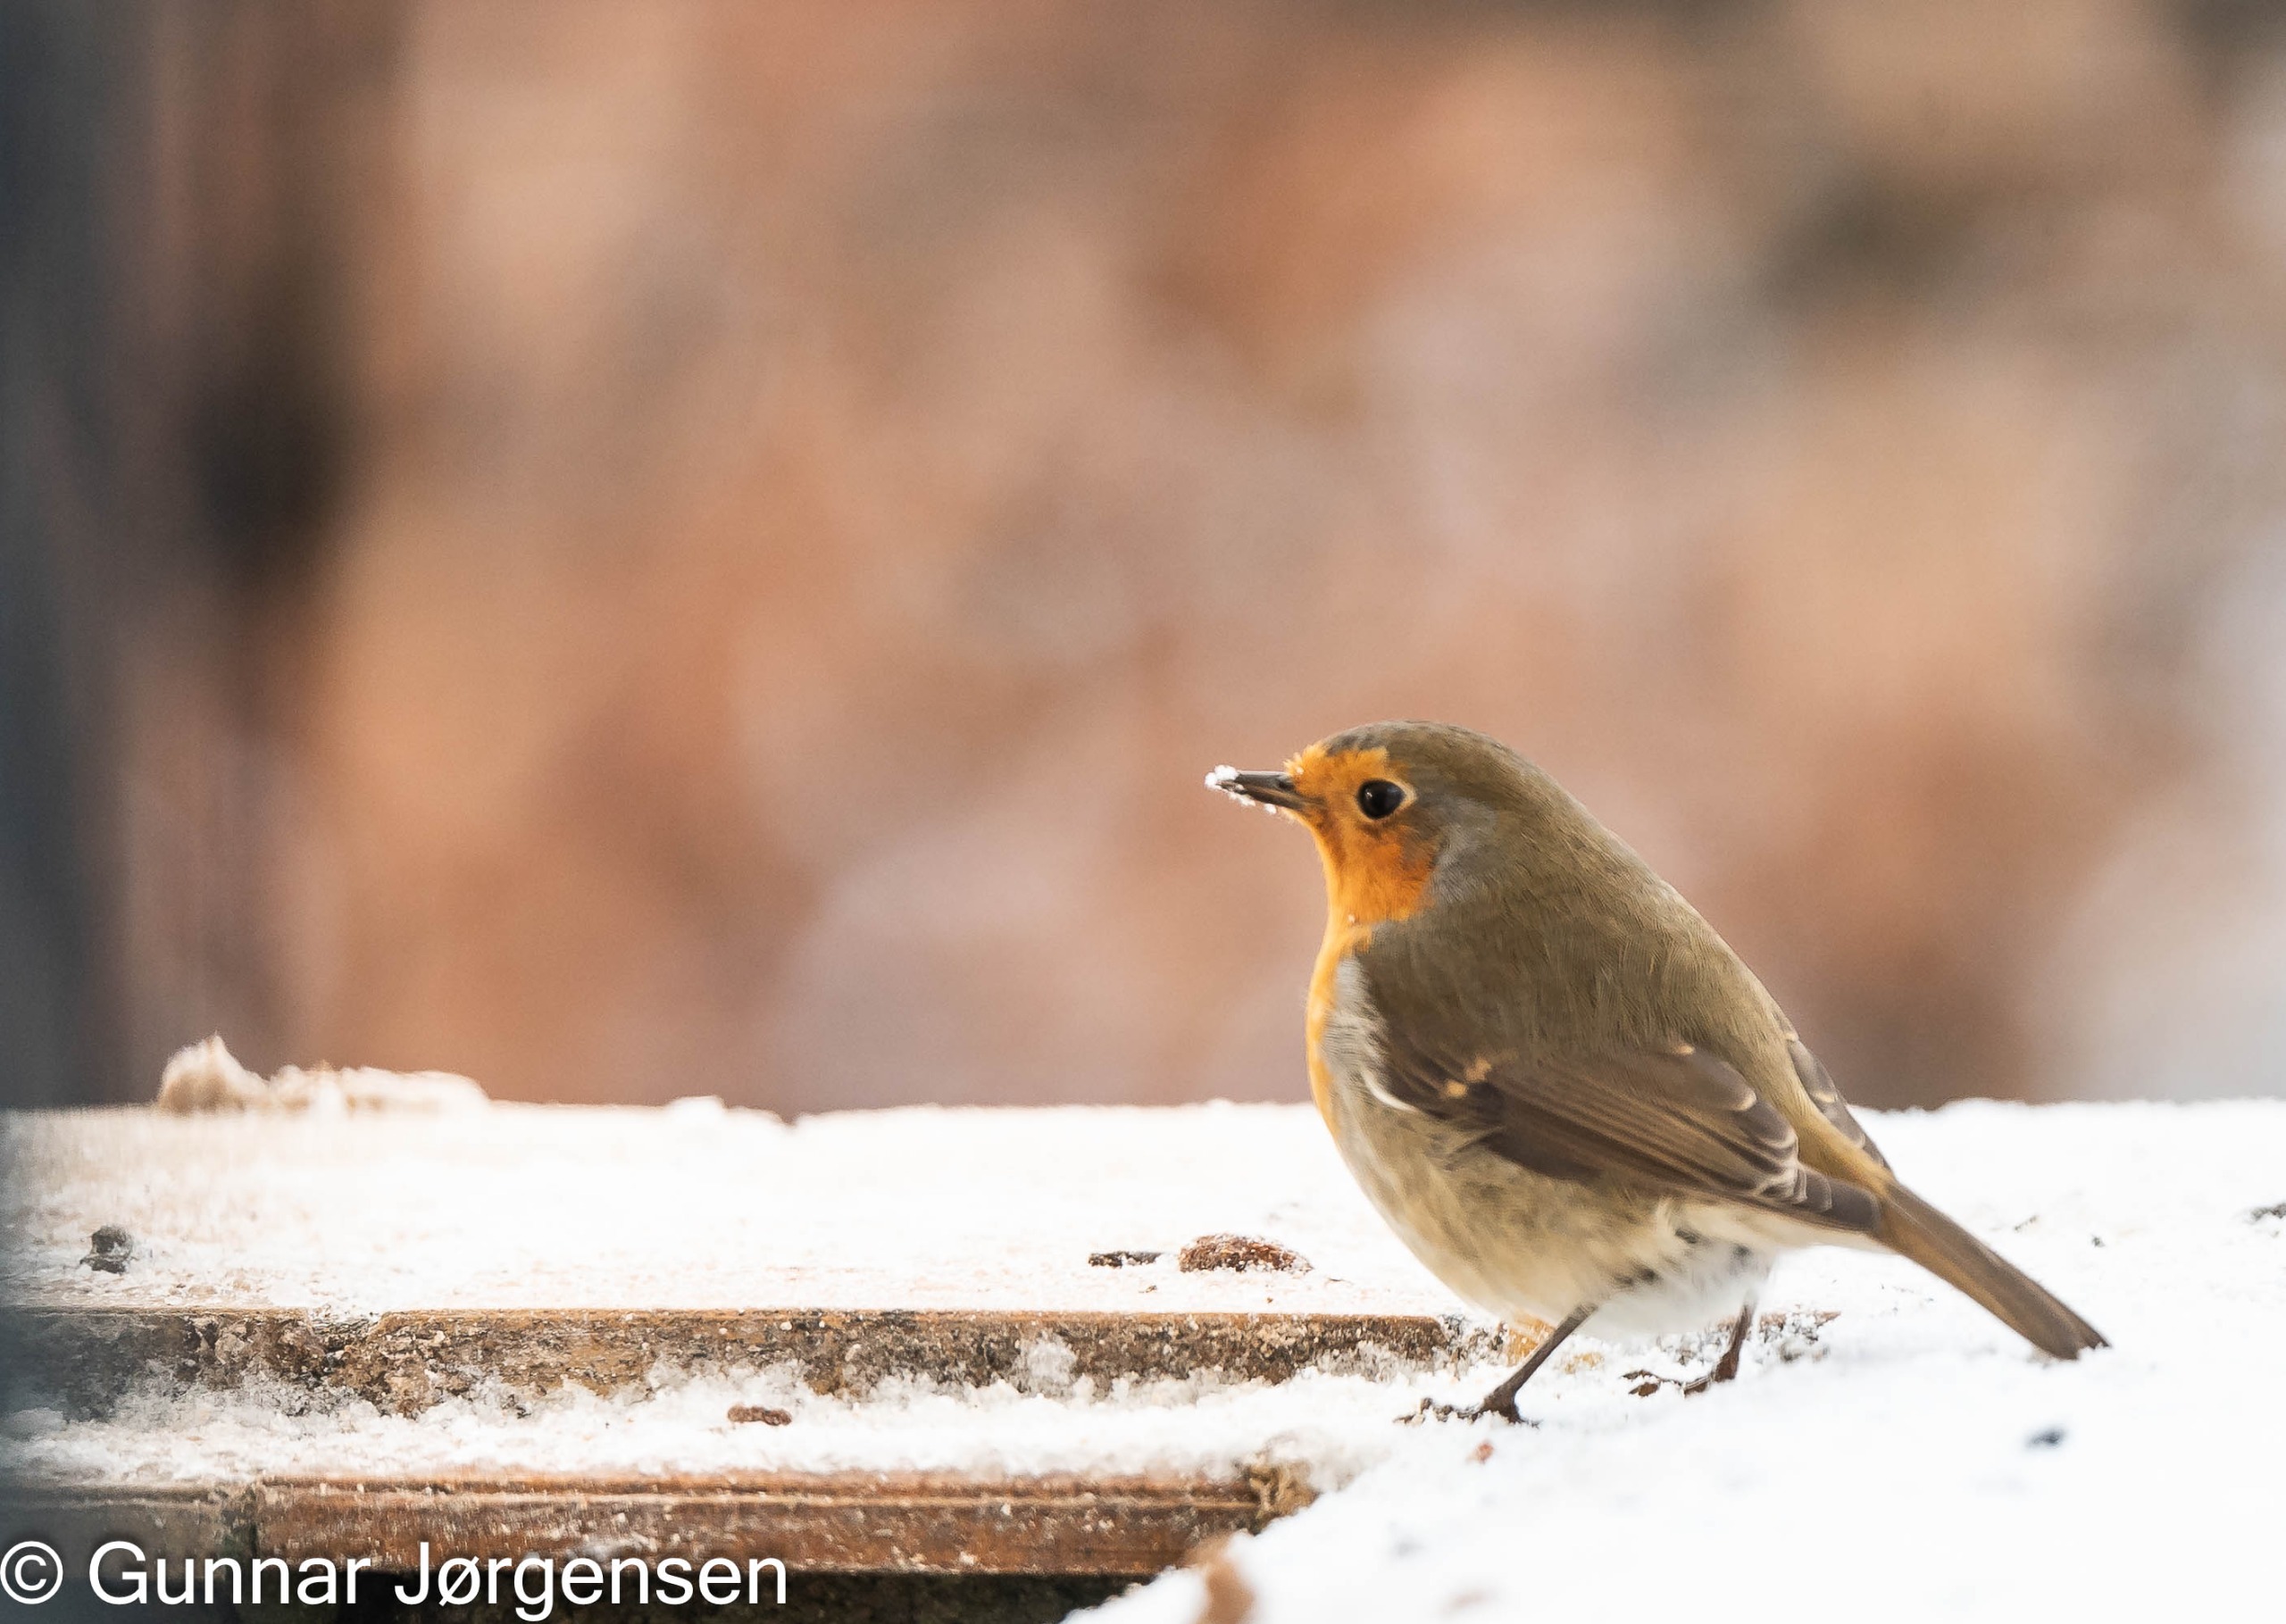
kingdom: Animalia
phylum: Chordata
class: Aves
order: Passeriformes
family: Muscicapidae
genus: Erithacus
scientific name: Erithacus rubecula
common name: Rødhals/rødkælk
